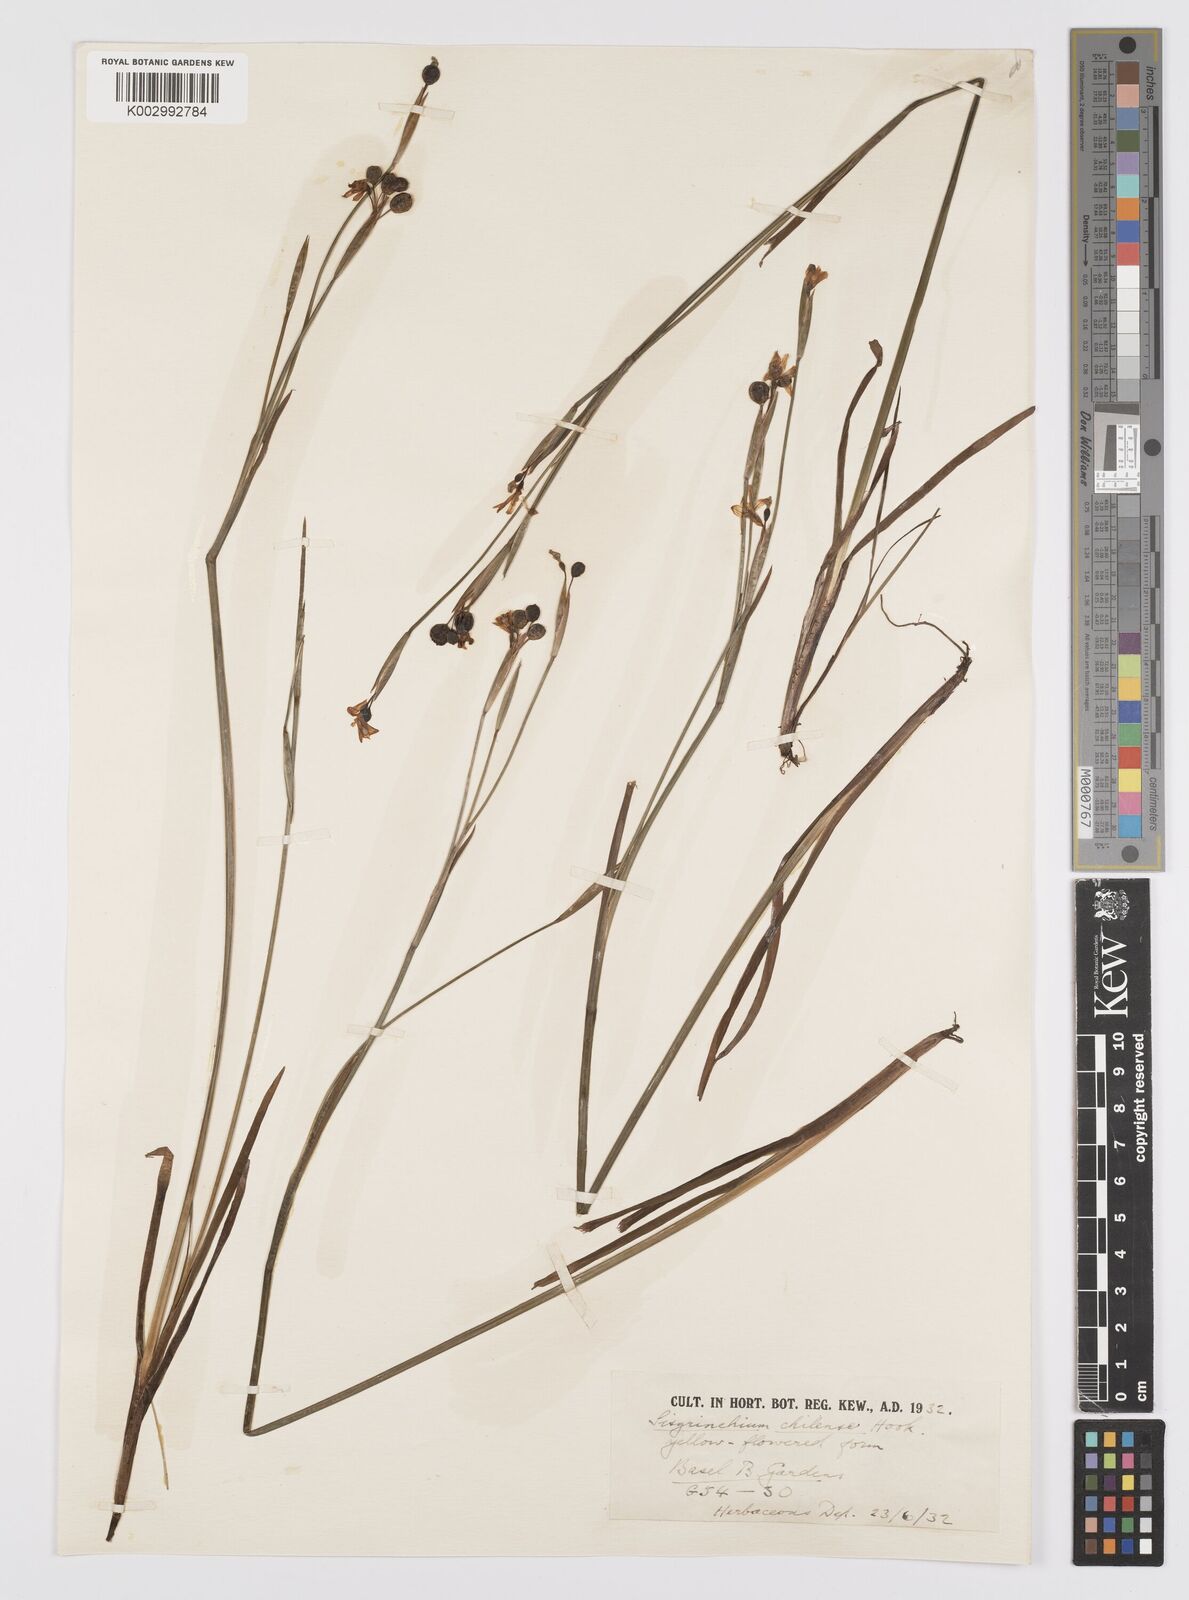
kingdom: Plantae
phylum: Tracheophyta
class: Liliopsida
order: Asparagales
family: Iridaceae
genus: Sisyrinchium
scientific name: Sisyrinchium chilense
